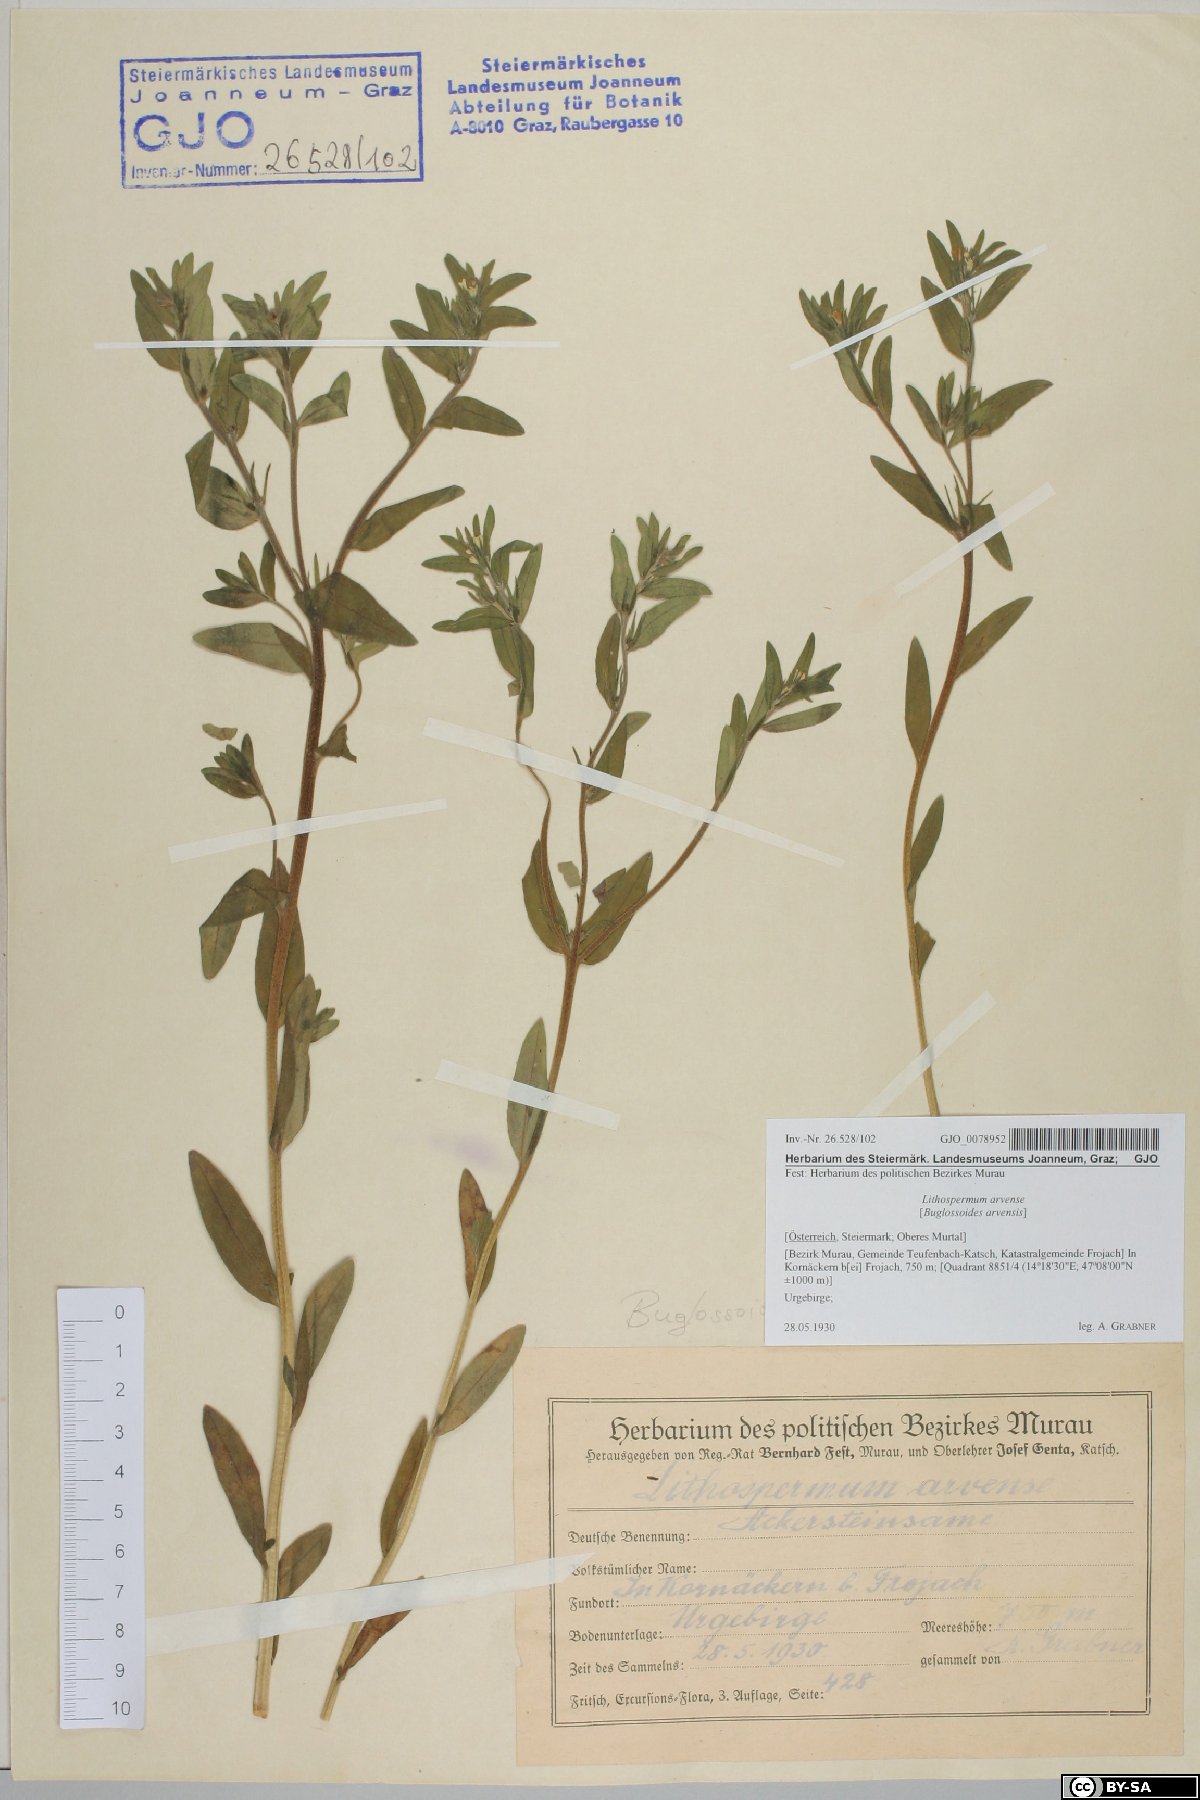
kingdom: Plantae
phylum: Tracheophyta
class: Magnoliopsida
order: Boraginales
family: Boraginaceae
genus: Buglossoides
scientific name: Buglossoides arvensis
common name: Corn gromwell
